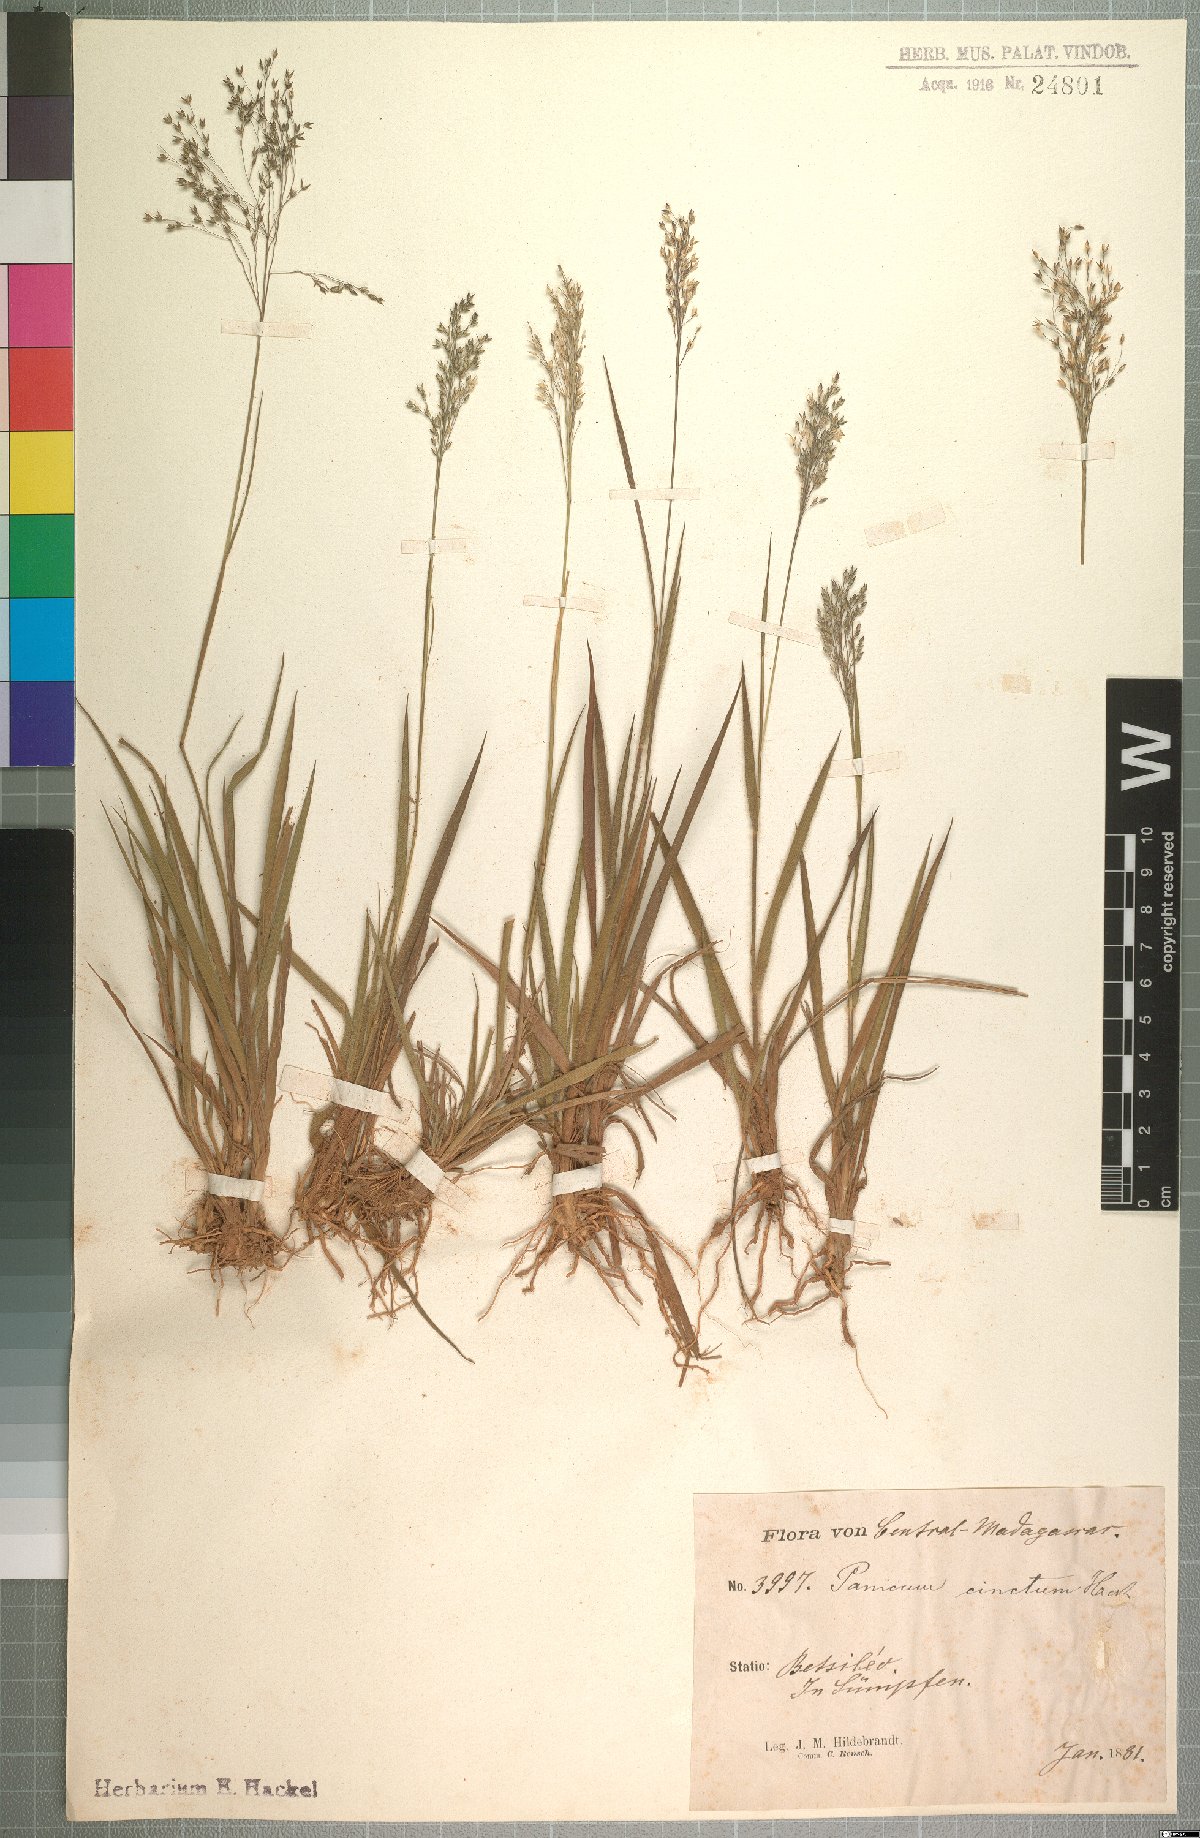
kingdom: Plantae
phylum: Tracheophyta
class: Liliopsida
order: Poales
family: Poaceae
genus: Panicum
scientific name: Panicum cinctum
